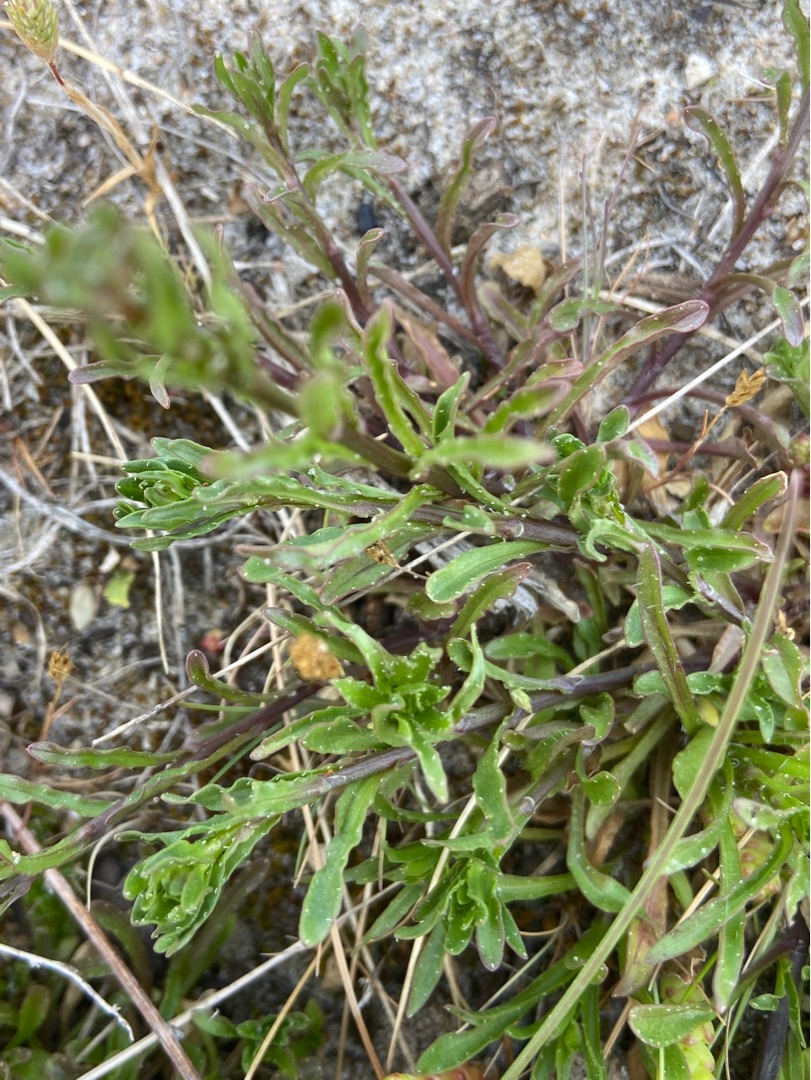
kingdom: Plantae
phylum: Tracheophyta
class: Magnoliopsida
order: Asterales
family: Campanulaceae
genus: Jasione
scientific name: Jasione montana
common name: Blåmunke
